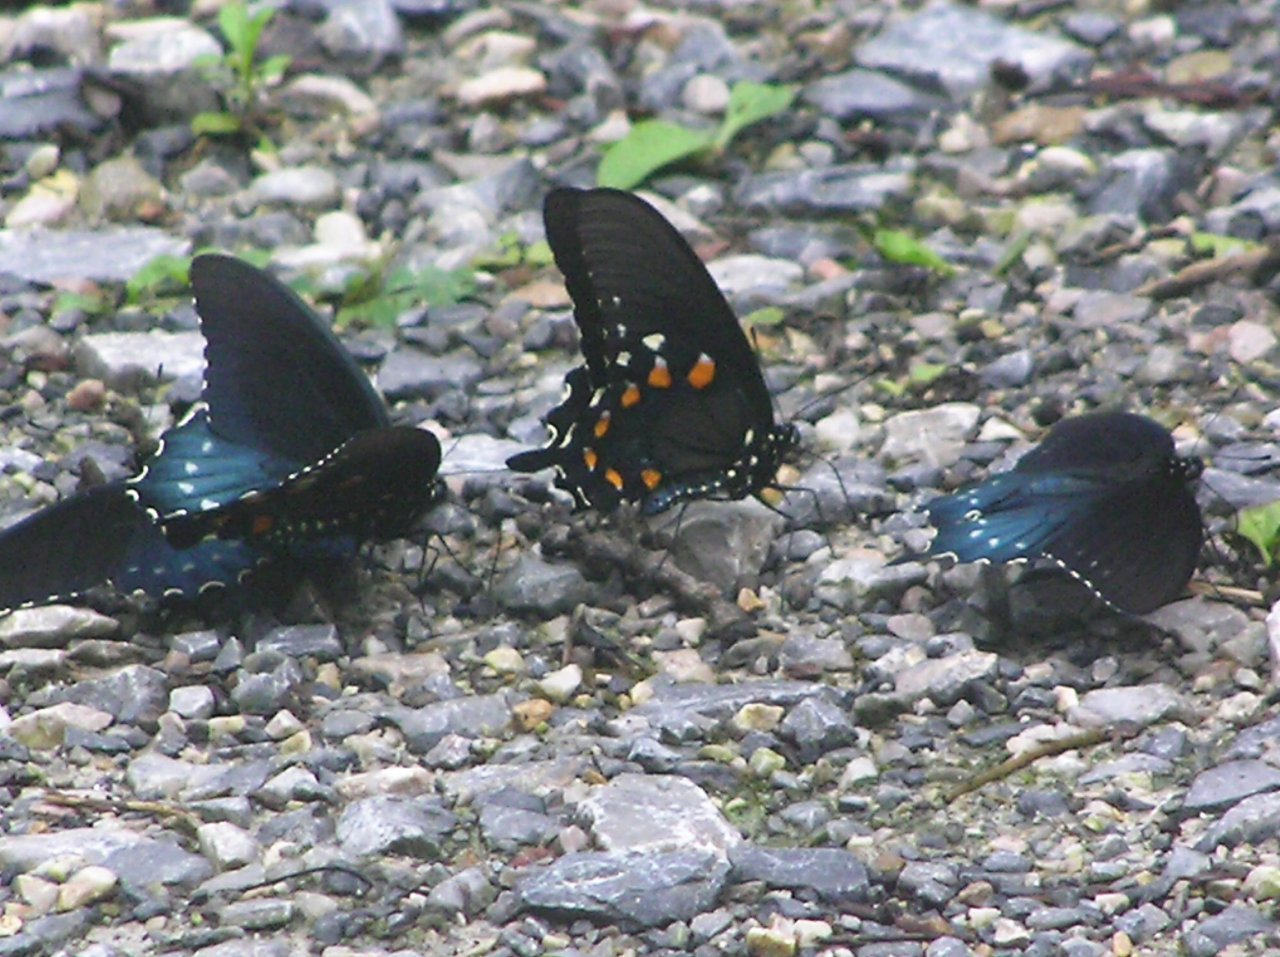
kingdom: Animalia
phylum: Arthropoda
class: Insecta
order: Lepidoptera
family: Papilionidae
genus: Battus
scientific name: Battus philenor
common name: Pipevine Swallowtail
